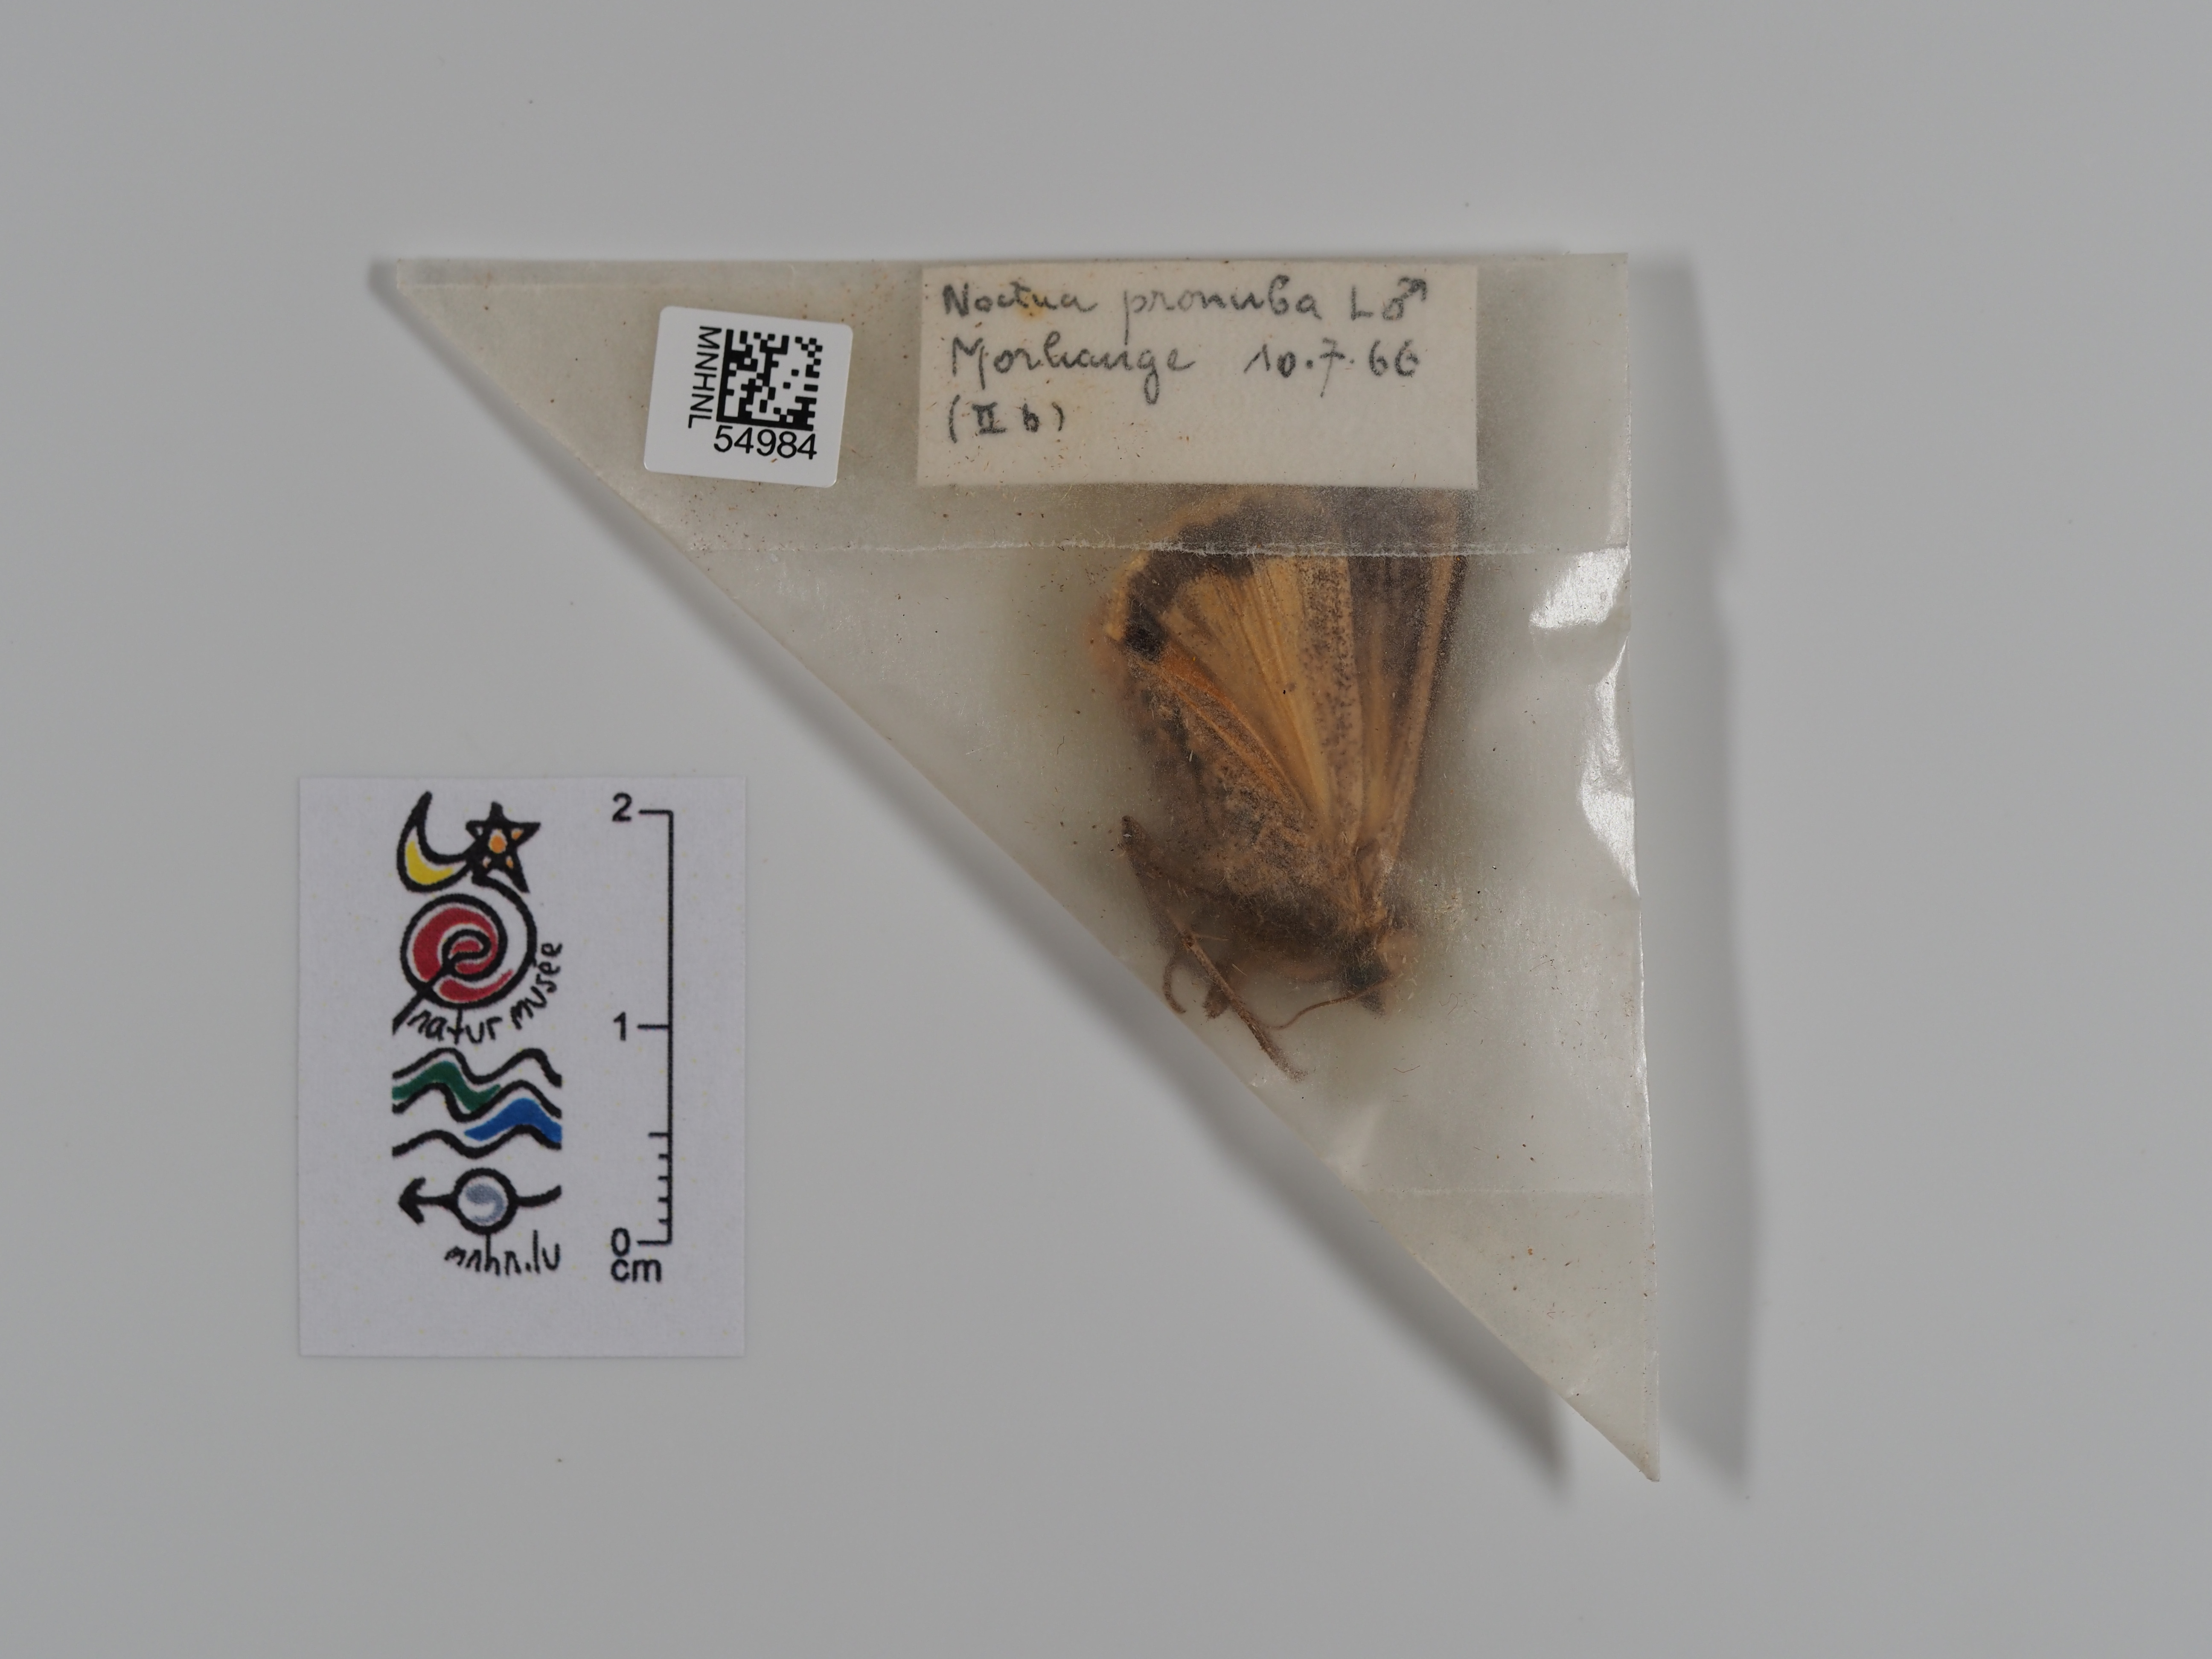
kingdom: Animalia
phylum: Arthropoda
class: Insecta
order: Lepidoptera
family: Noctuidae
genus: Noctua
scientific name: Noctua pronuba
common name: Large yellow underwing
